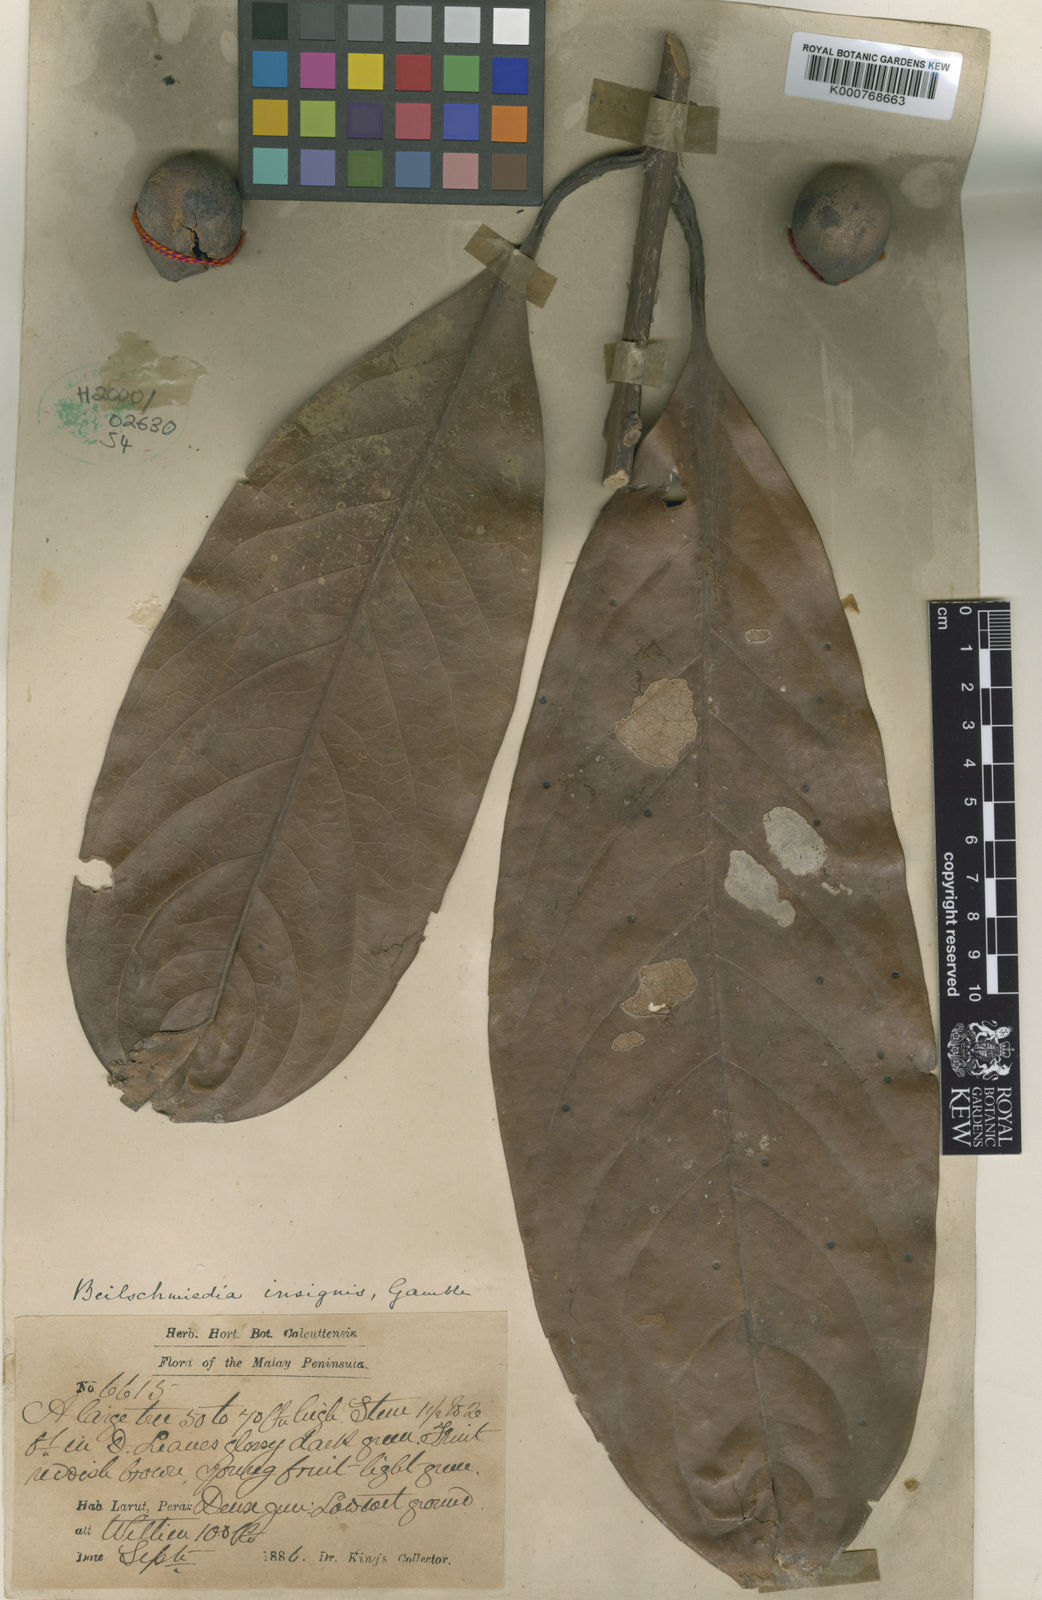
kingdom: Plantae
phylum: Tracheophyta
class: Magnoliopsida
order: Laurales
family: Lauraceae
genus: Beilschmiedia
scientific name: Beilschmiedia insignis
